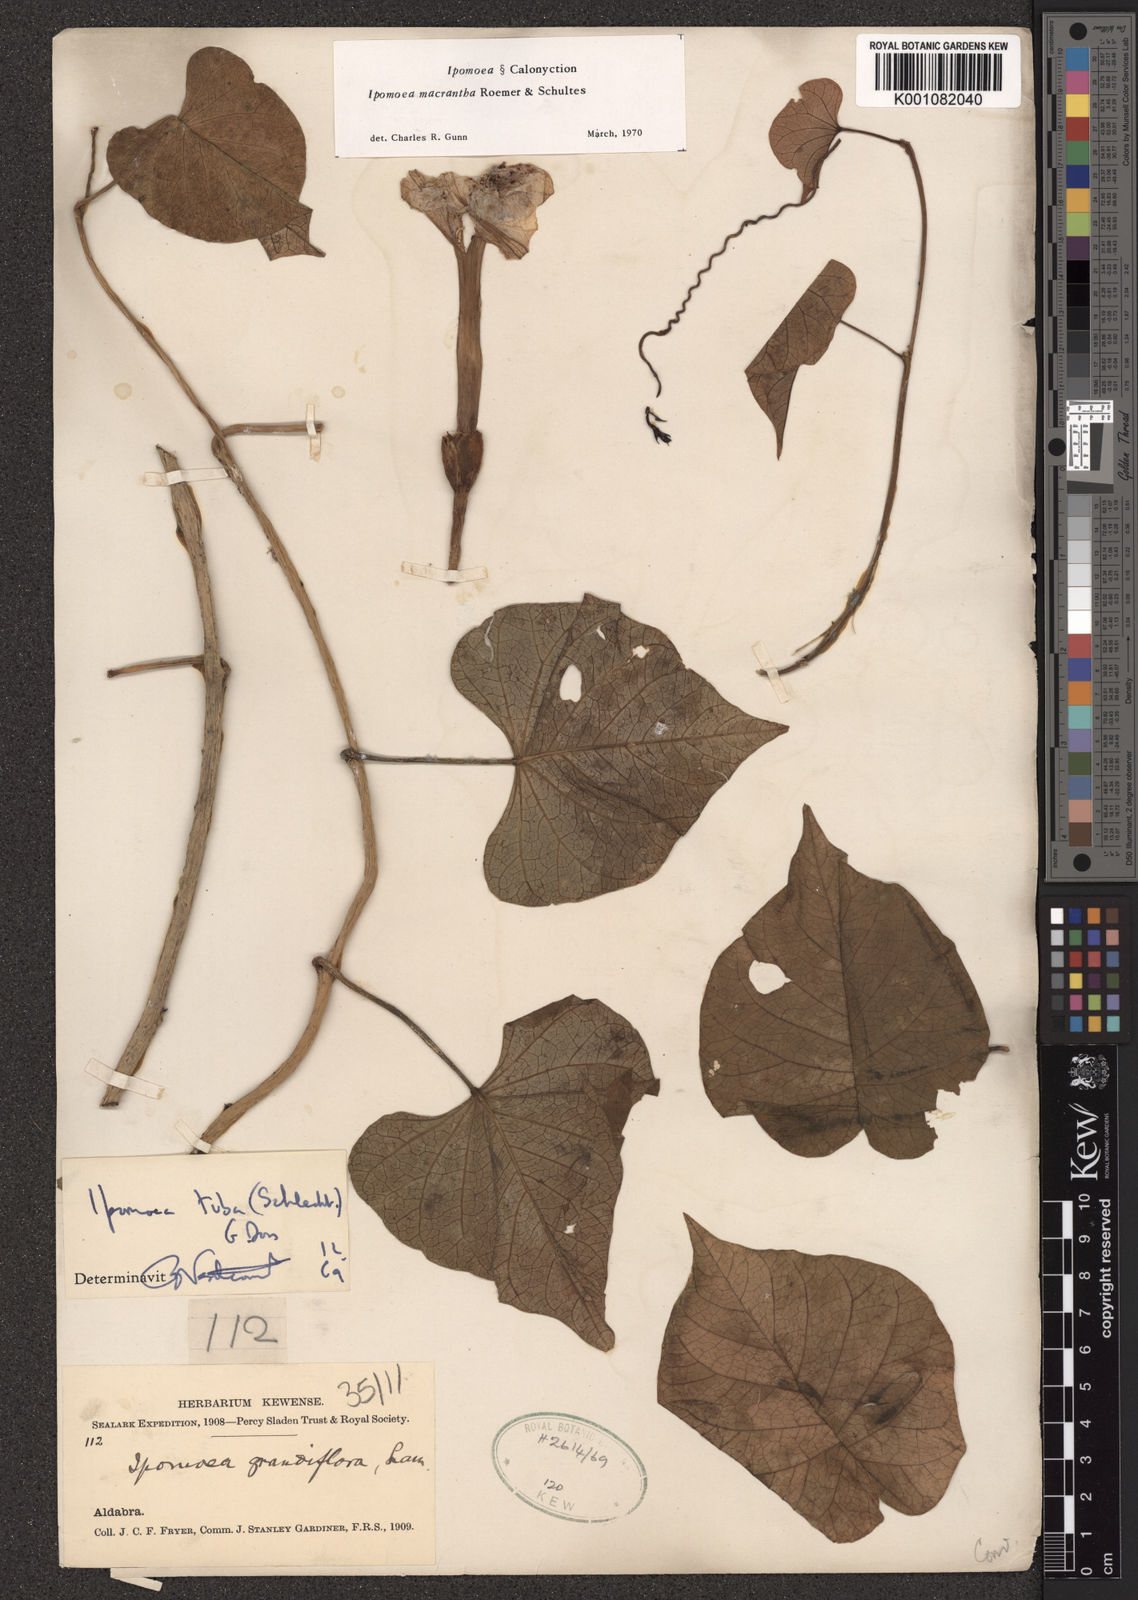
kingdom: Plantae
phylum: Tracheophyta
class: Magnoliopsida
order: Solanales
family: Convolvulaceae
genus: Ipomoea
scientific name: Ipomoea violacea
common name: Beach moonflower
